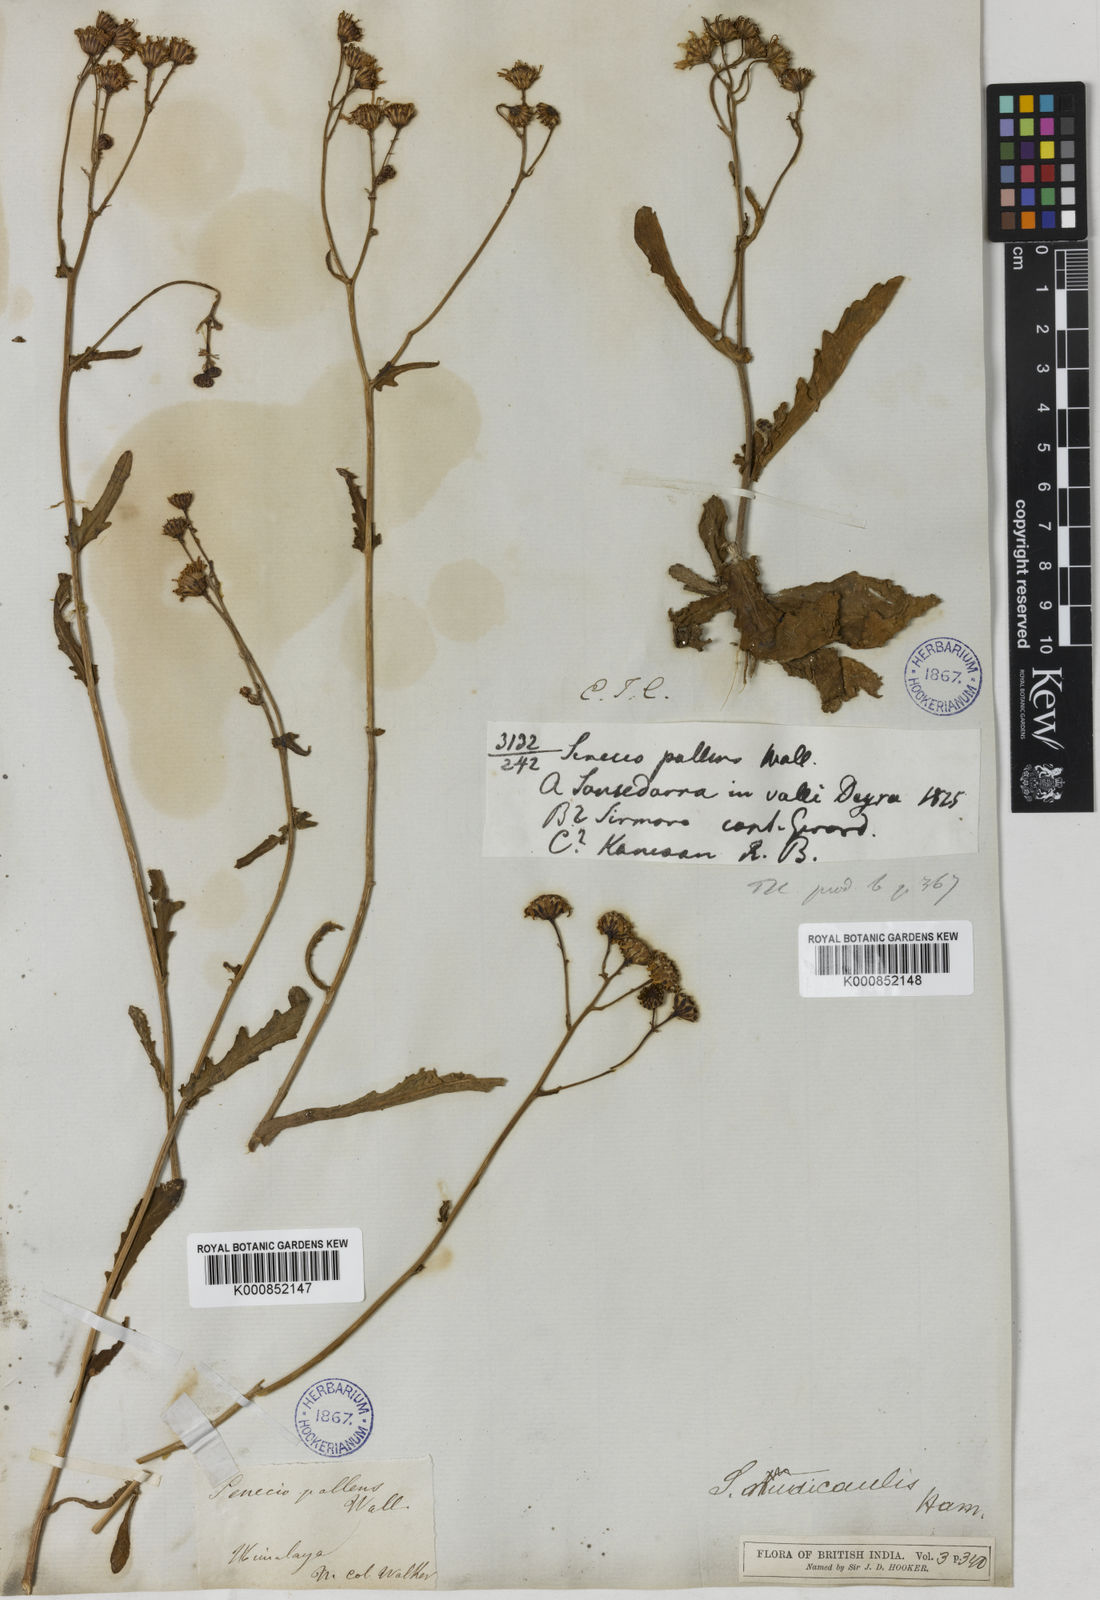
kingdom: Plantae
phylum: Tracheophyta
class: Magnoliopsida
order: Asterales
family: Asteraceae
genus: Jacobaea
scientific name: Jacobaea nudicaulis
